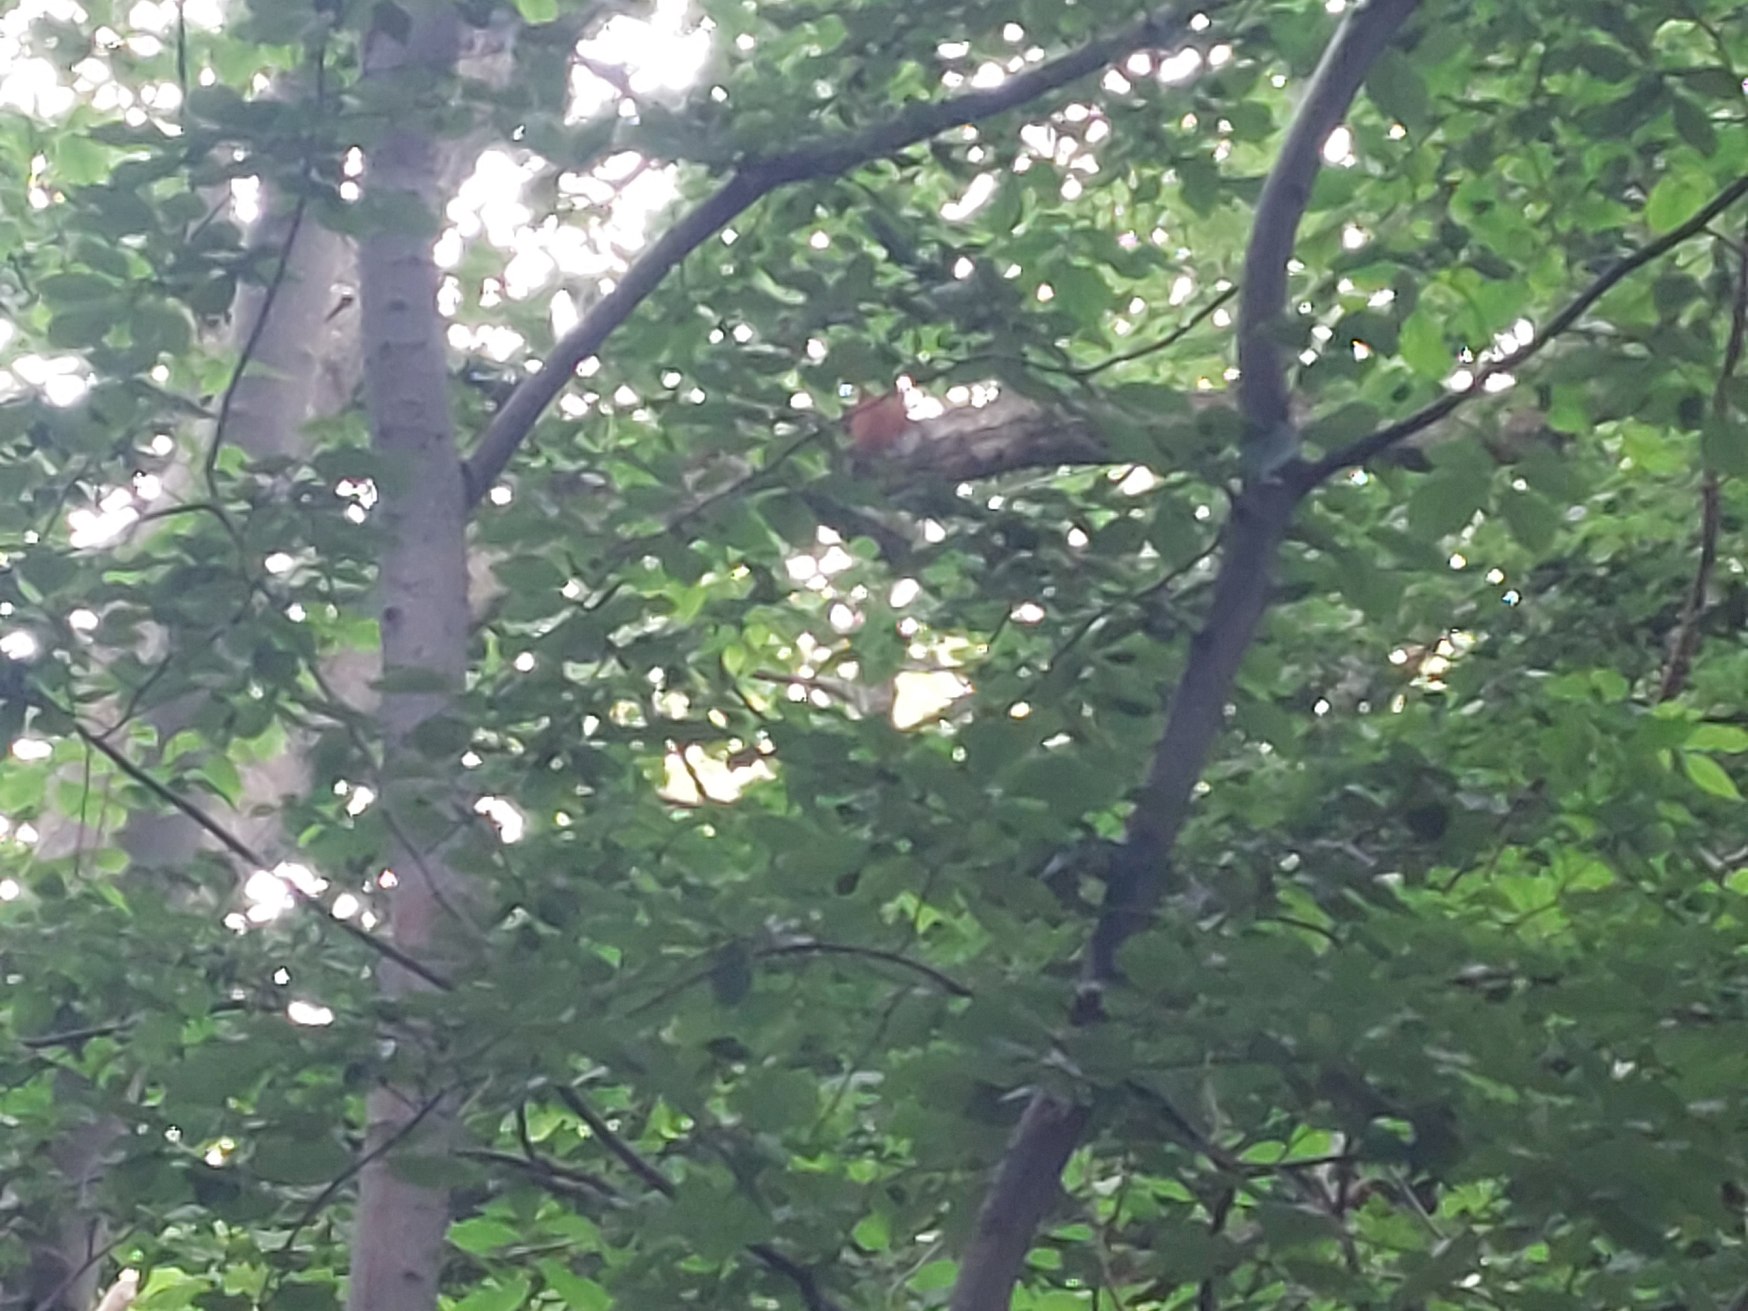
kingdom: Animalia
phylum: Chordata
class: Mammalia
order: Rodentia
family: Sciuridae
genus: Sciurus
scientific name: Sciurus vulgaris
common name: Egern
